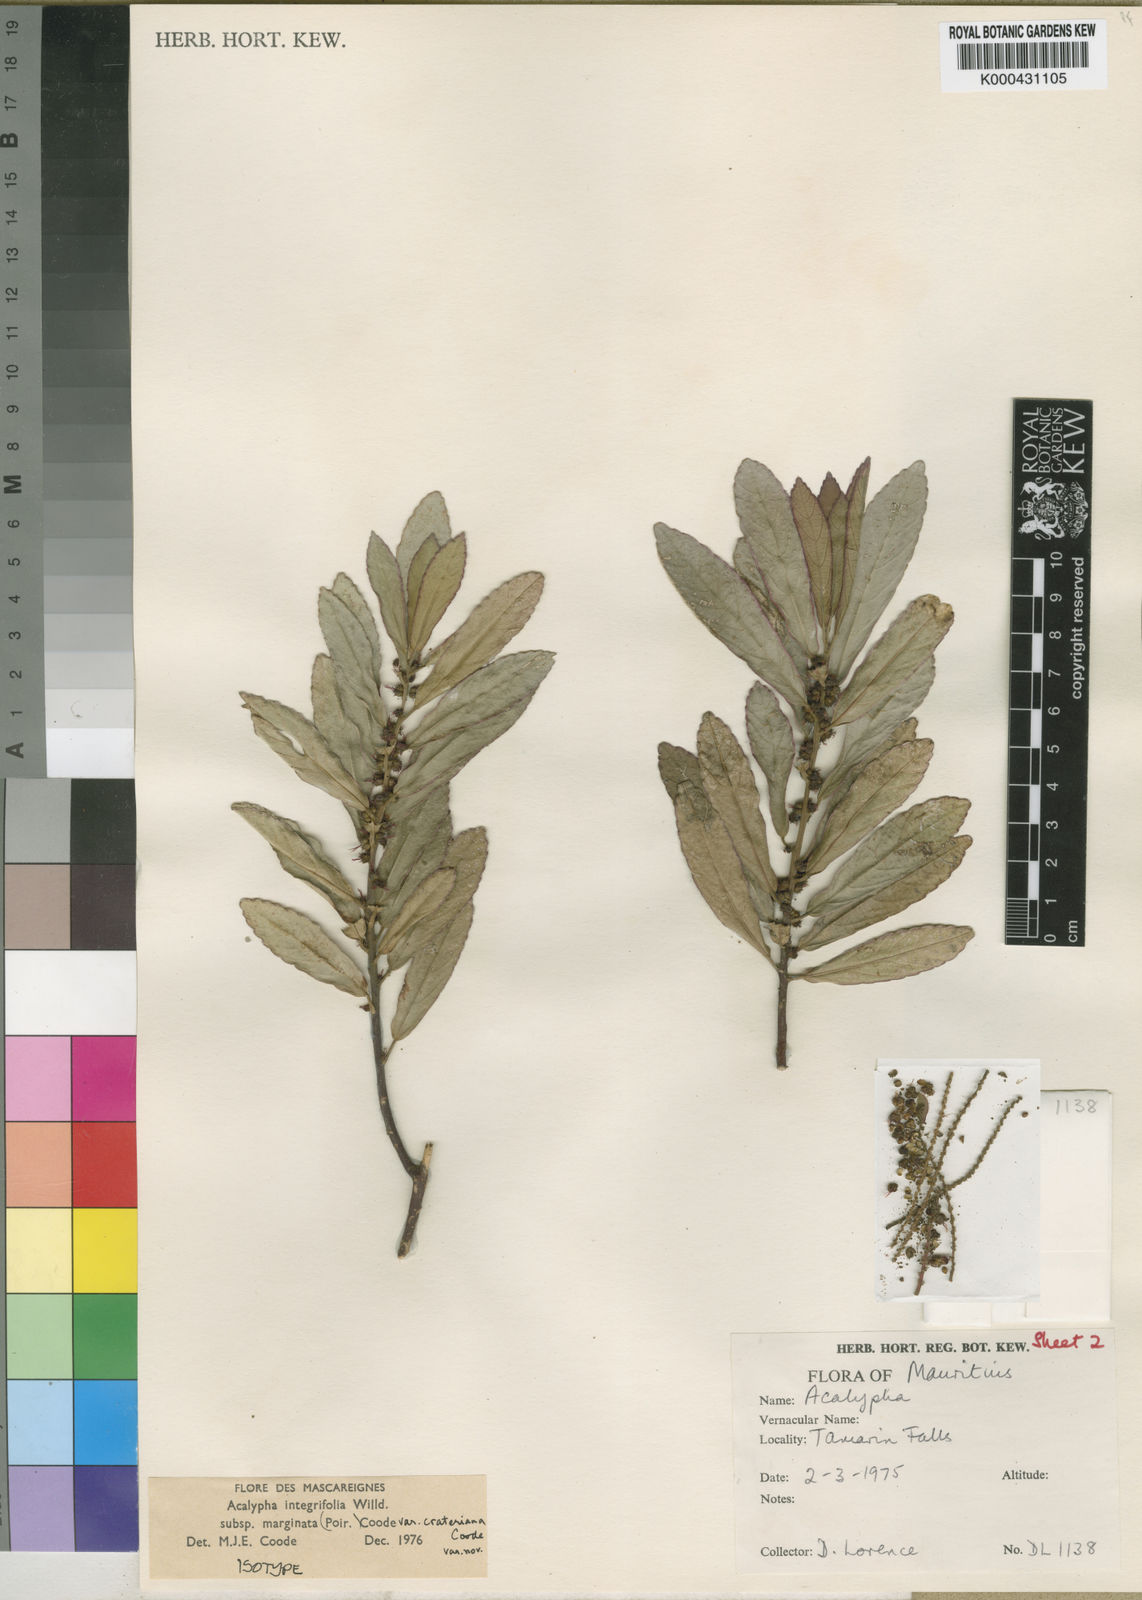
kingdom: Plantae
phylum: Tracheophyta
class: Magnoliopsida
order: Malpighiales
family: Euphorbiaceae
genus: Acalypha
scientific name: Acalypha marginata
